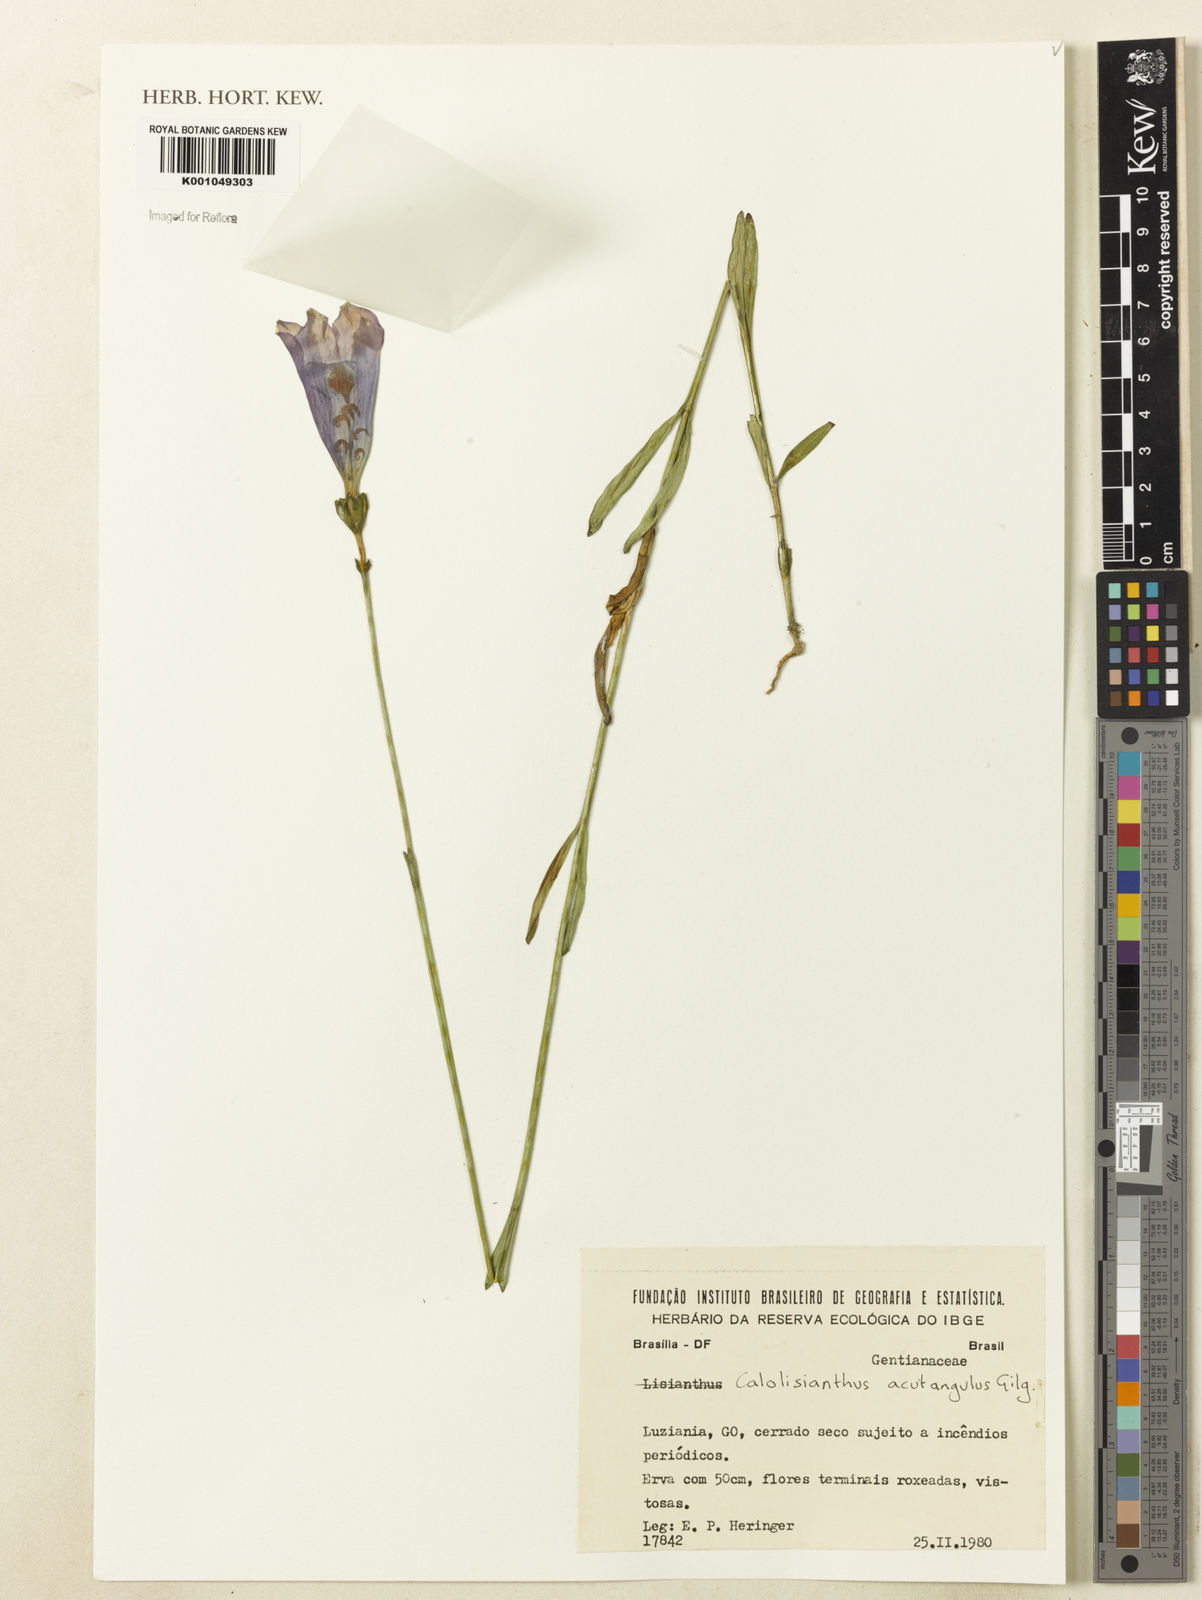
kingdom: Plantae
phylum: Tracheophyta
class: Magnoliopsida
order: Gentianales
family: Gentianaceae
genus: Lisianthius
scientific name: Lisianthius tetragonoalatus
